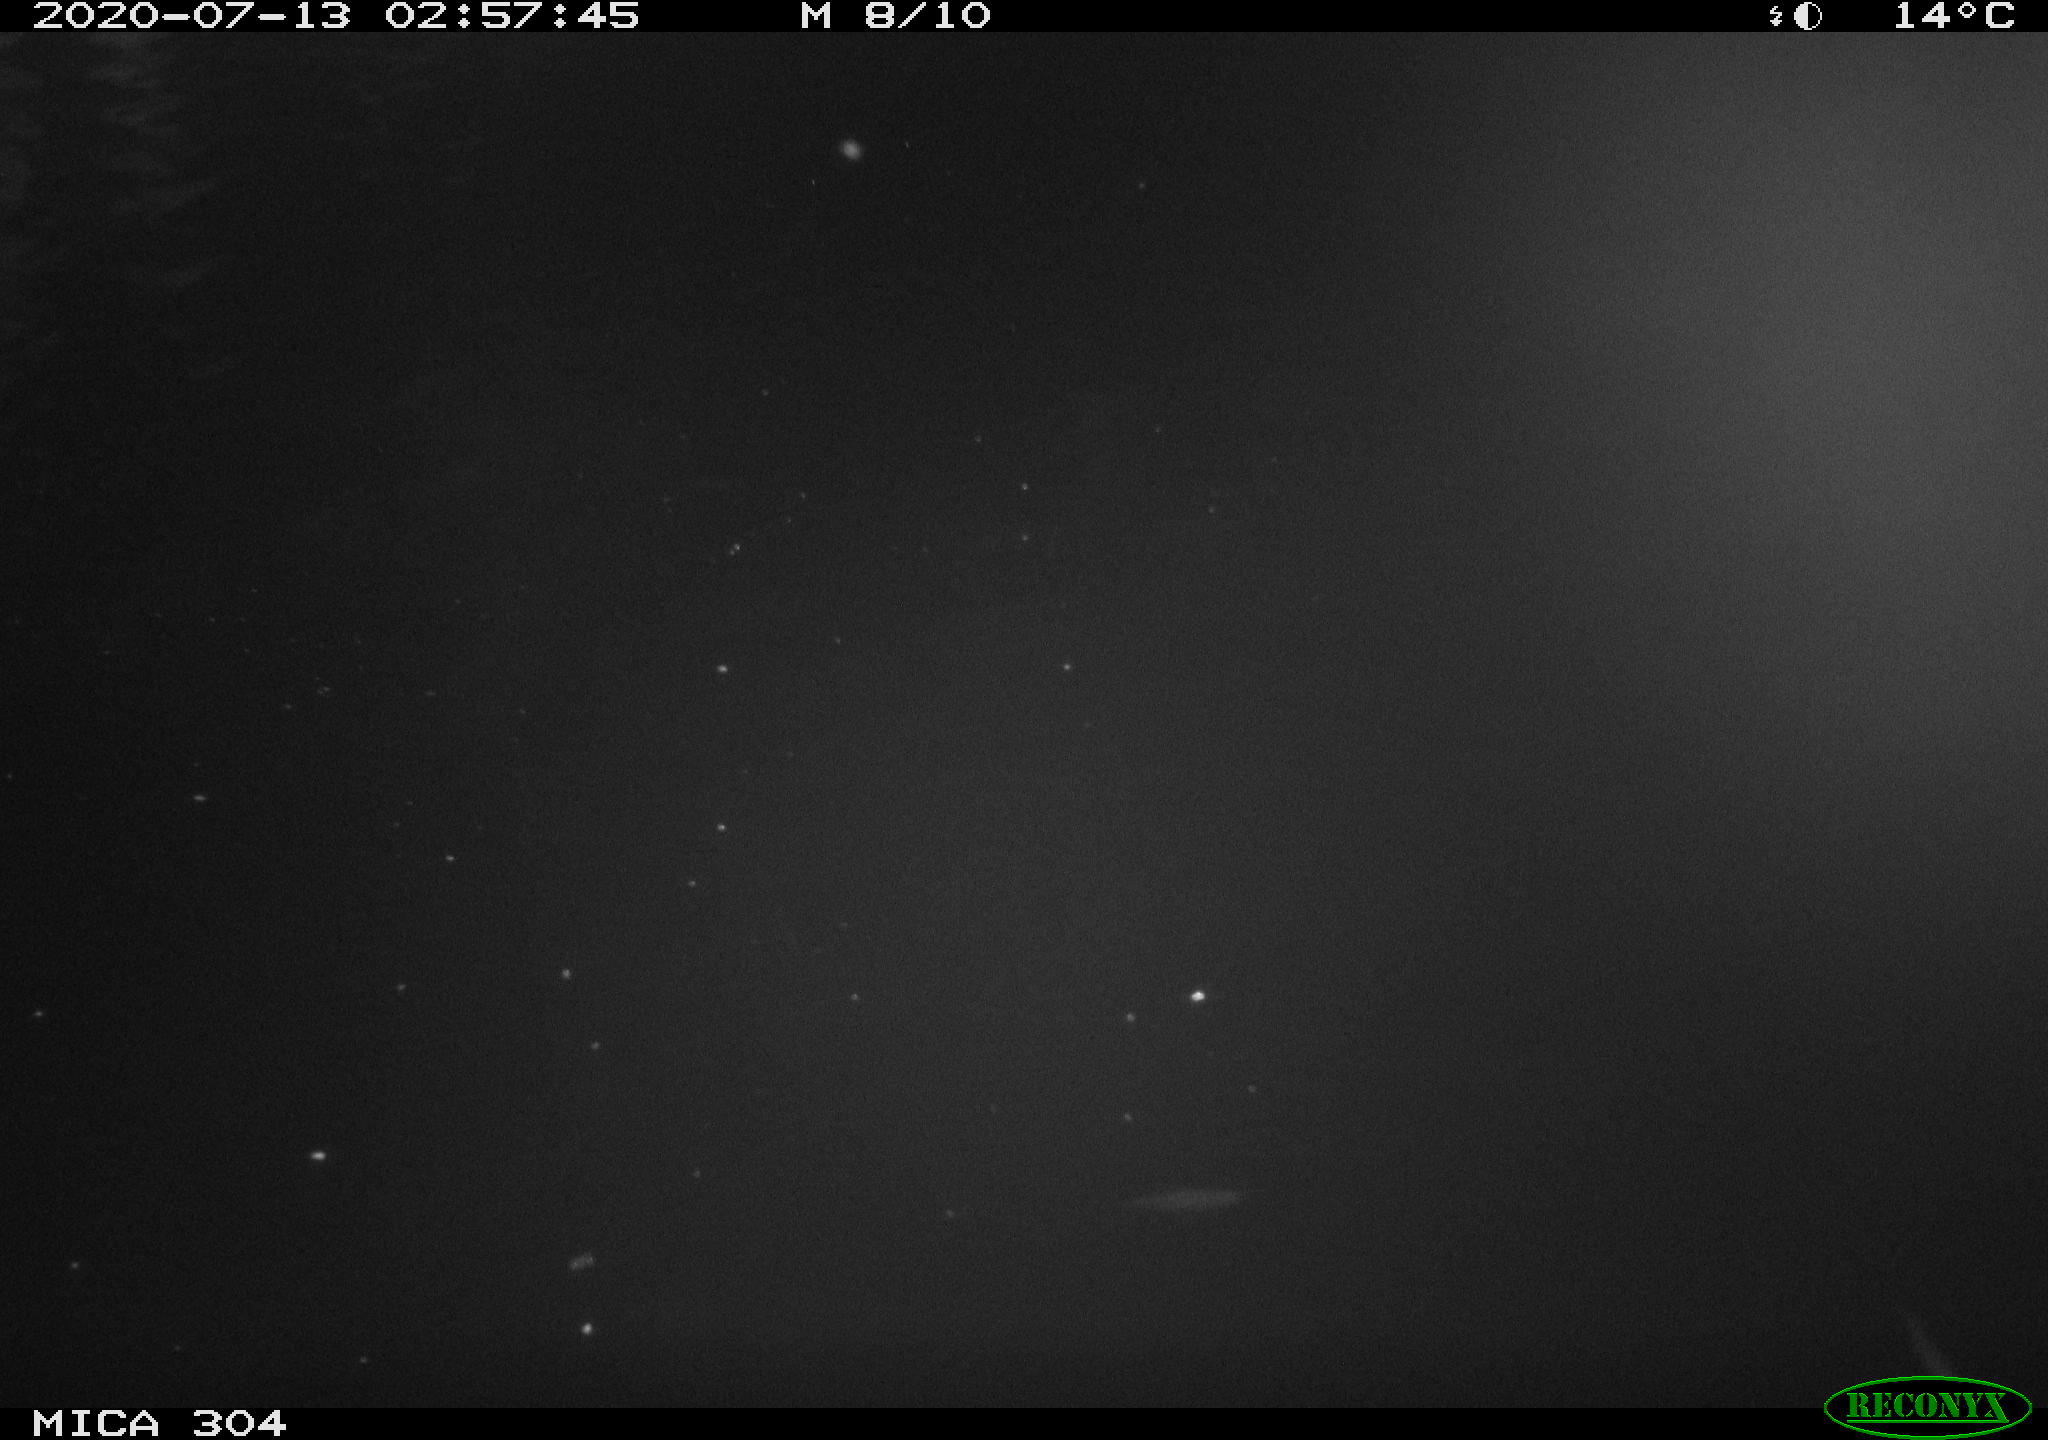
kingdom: Animalia
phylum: Chordata
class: Mammalia
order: Rodentia
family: Cricetidae
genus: Ondatra
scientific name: Ondatra zibethicus
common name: Muskrat
